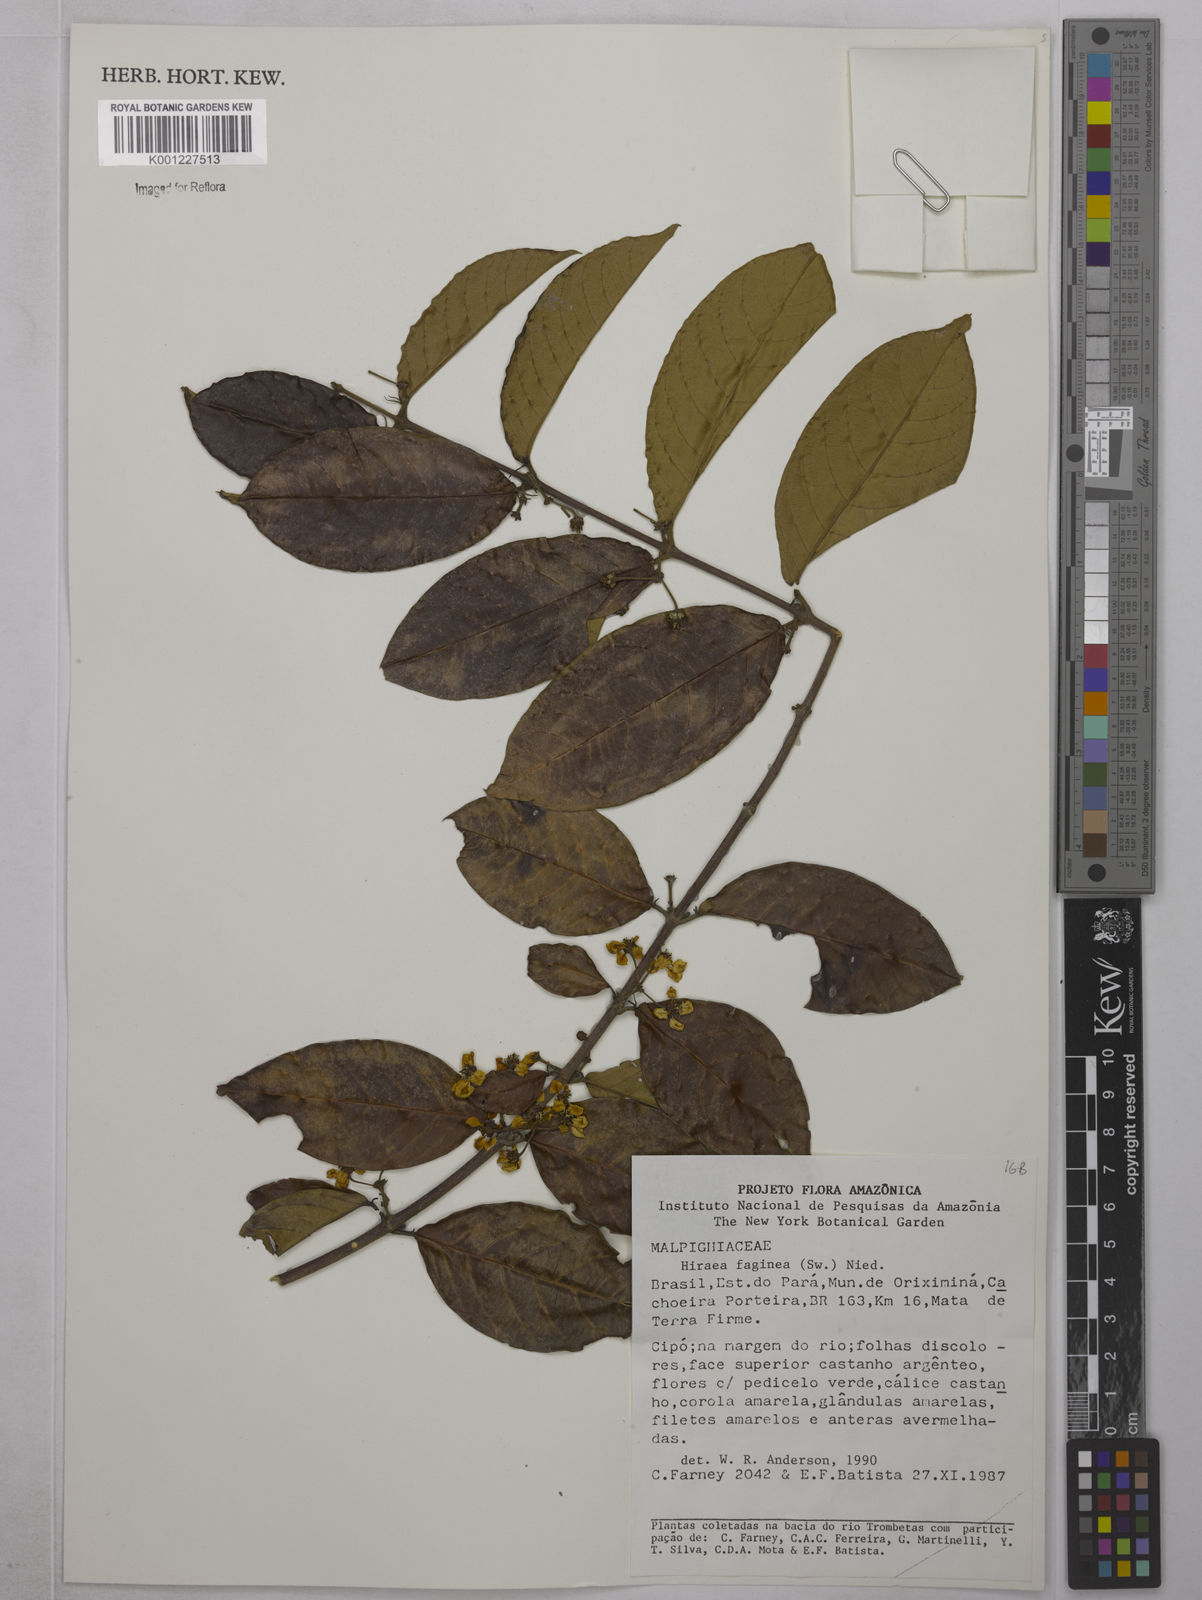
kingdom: Plantae
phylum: Tracheophyta
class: Magnoliopsida
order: Malpighiales
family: Malpighiaceae
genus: Hiraea
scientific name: Hiraea faginea
